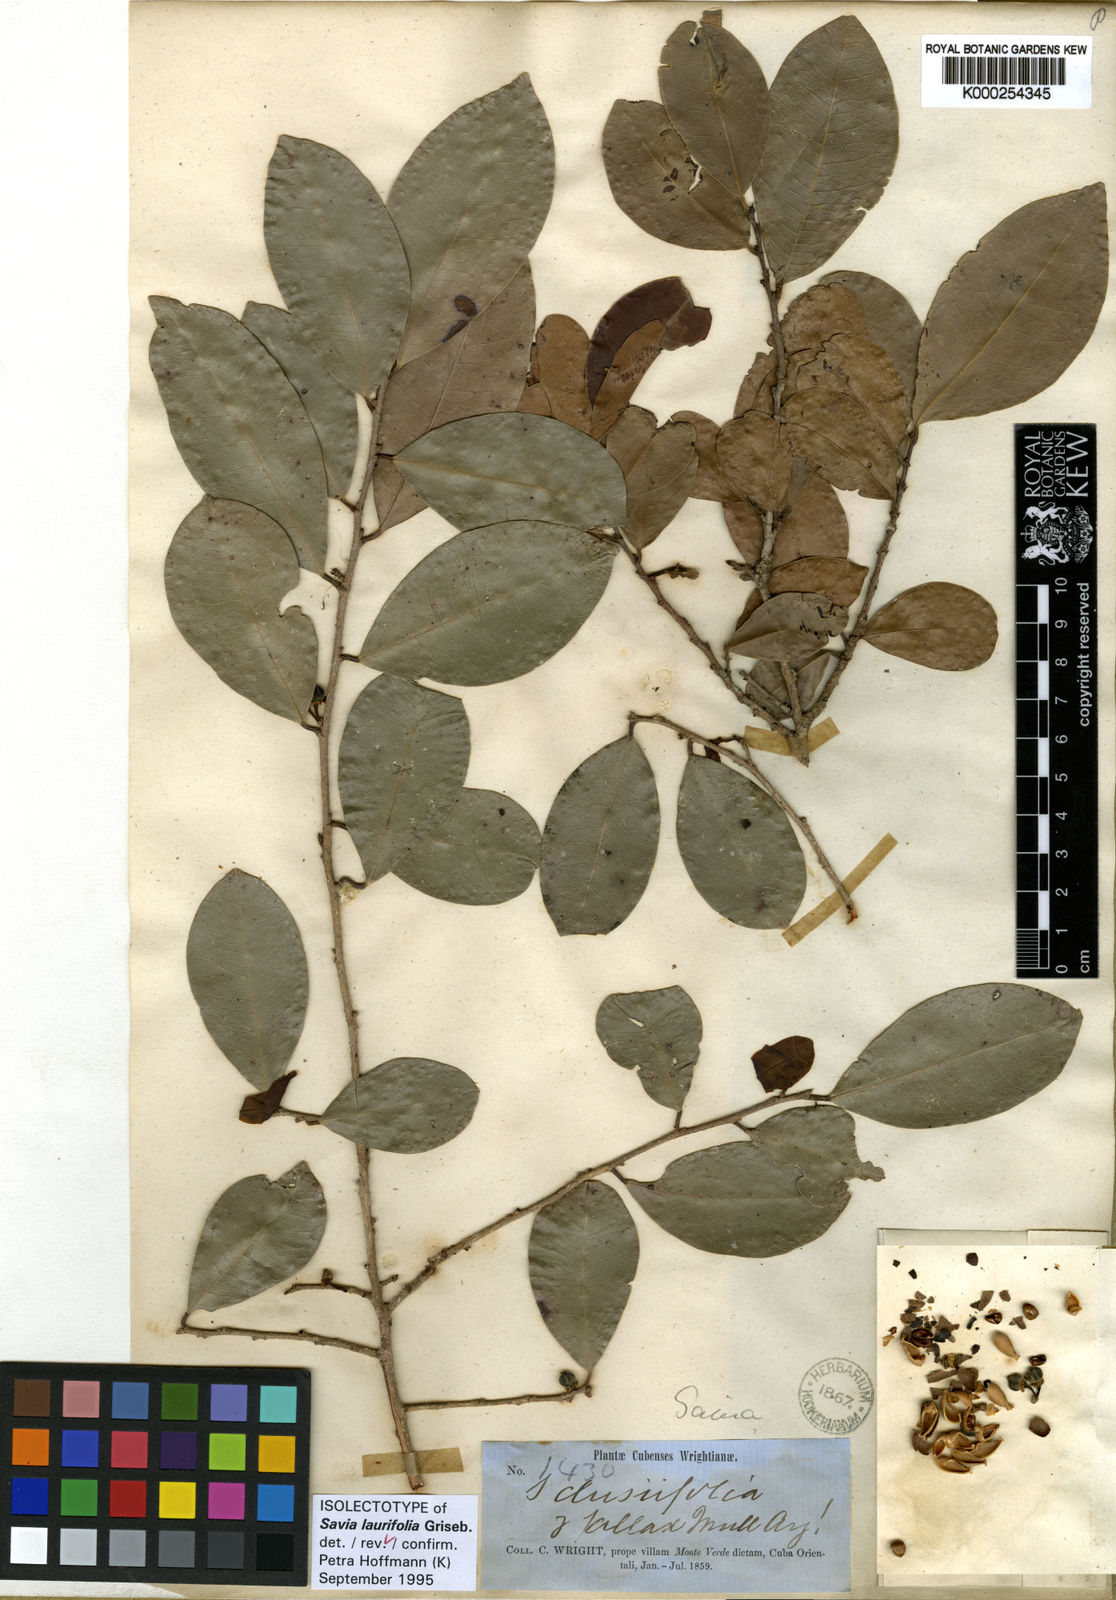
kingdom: Plantae
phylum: Tracheophyta
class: Magnoliopsida
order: Malpighiales
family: Phyllanthaceae
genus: Heterosavia
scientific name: Heterosavia laurifolia
